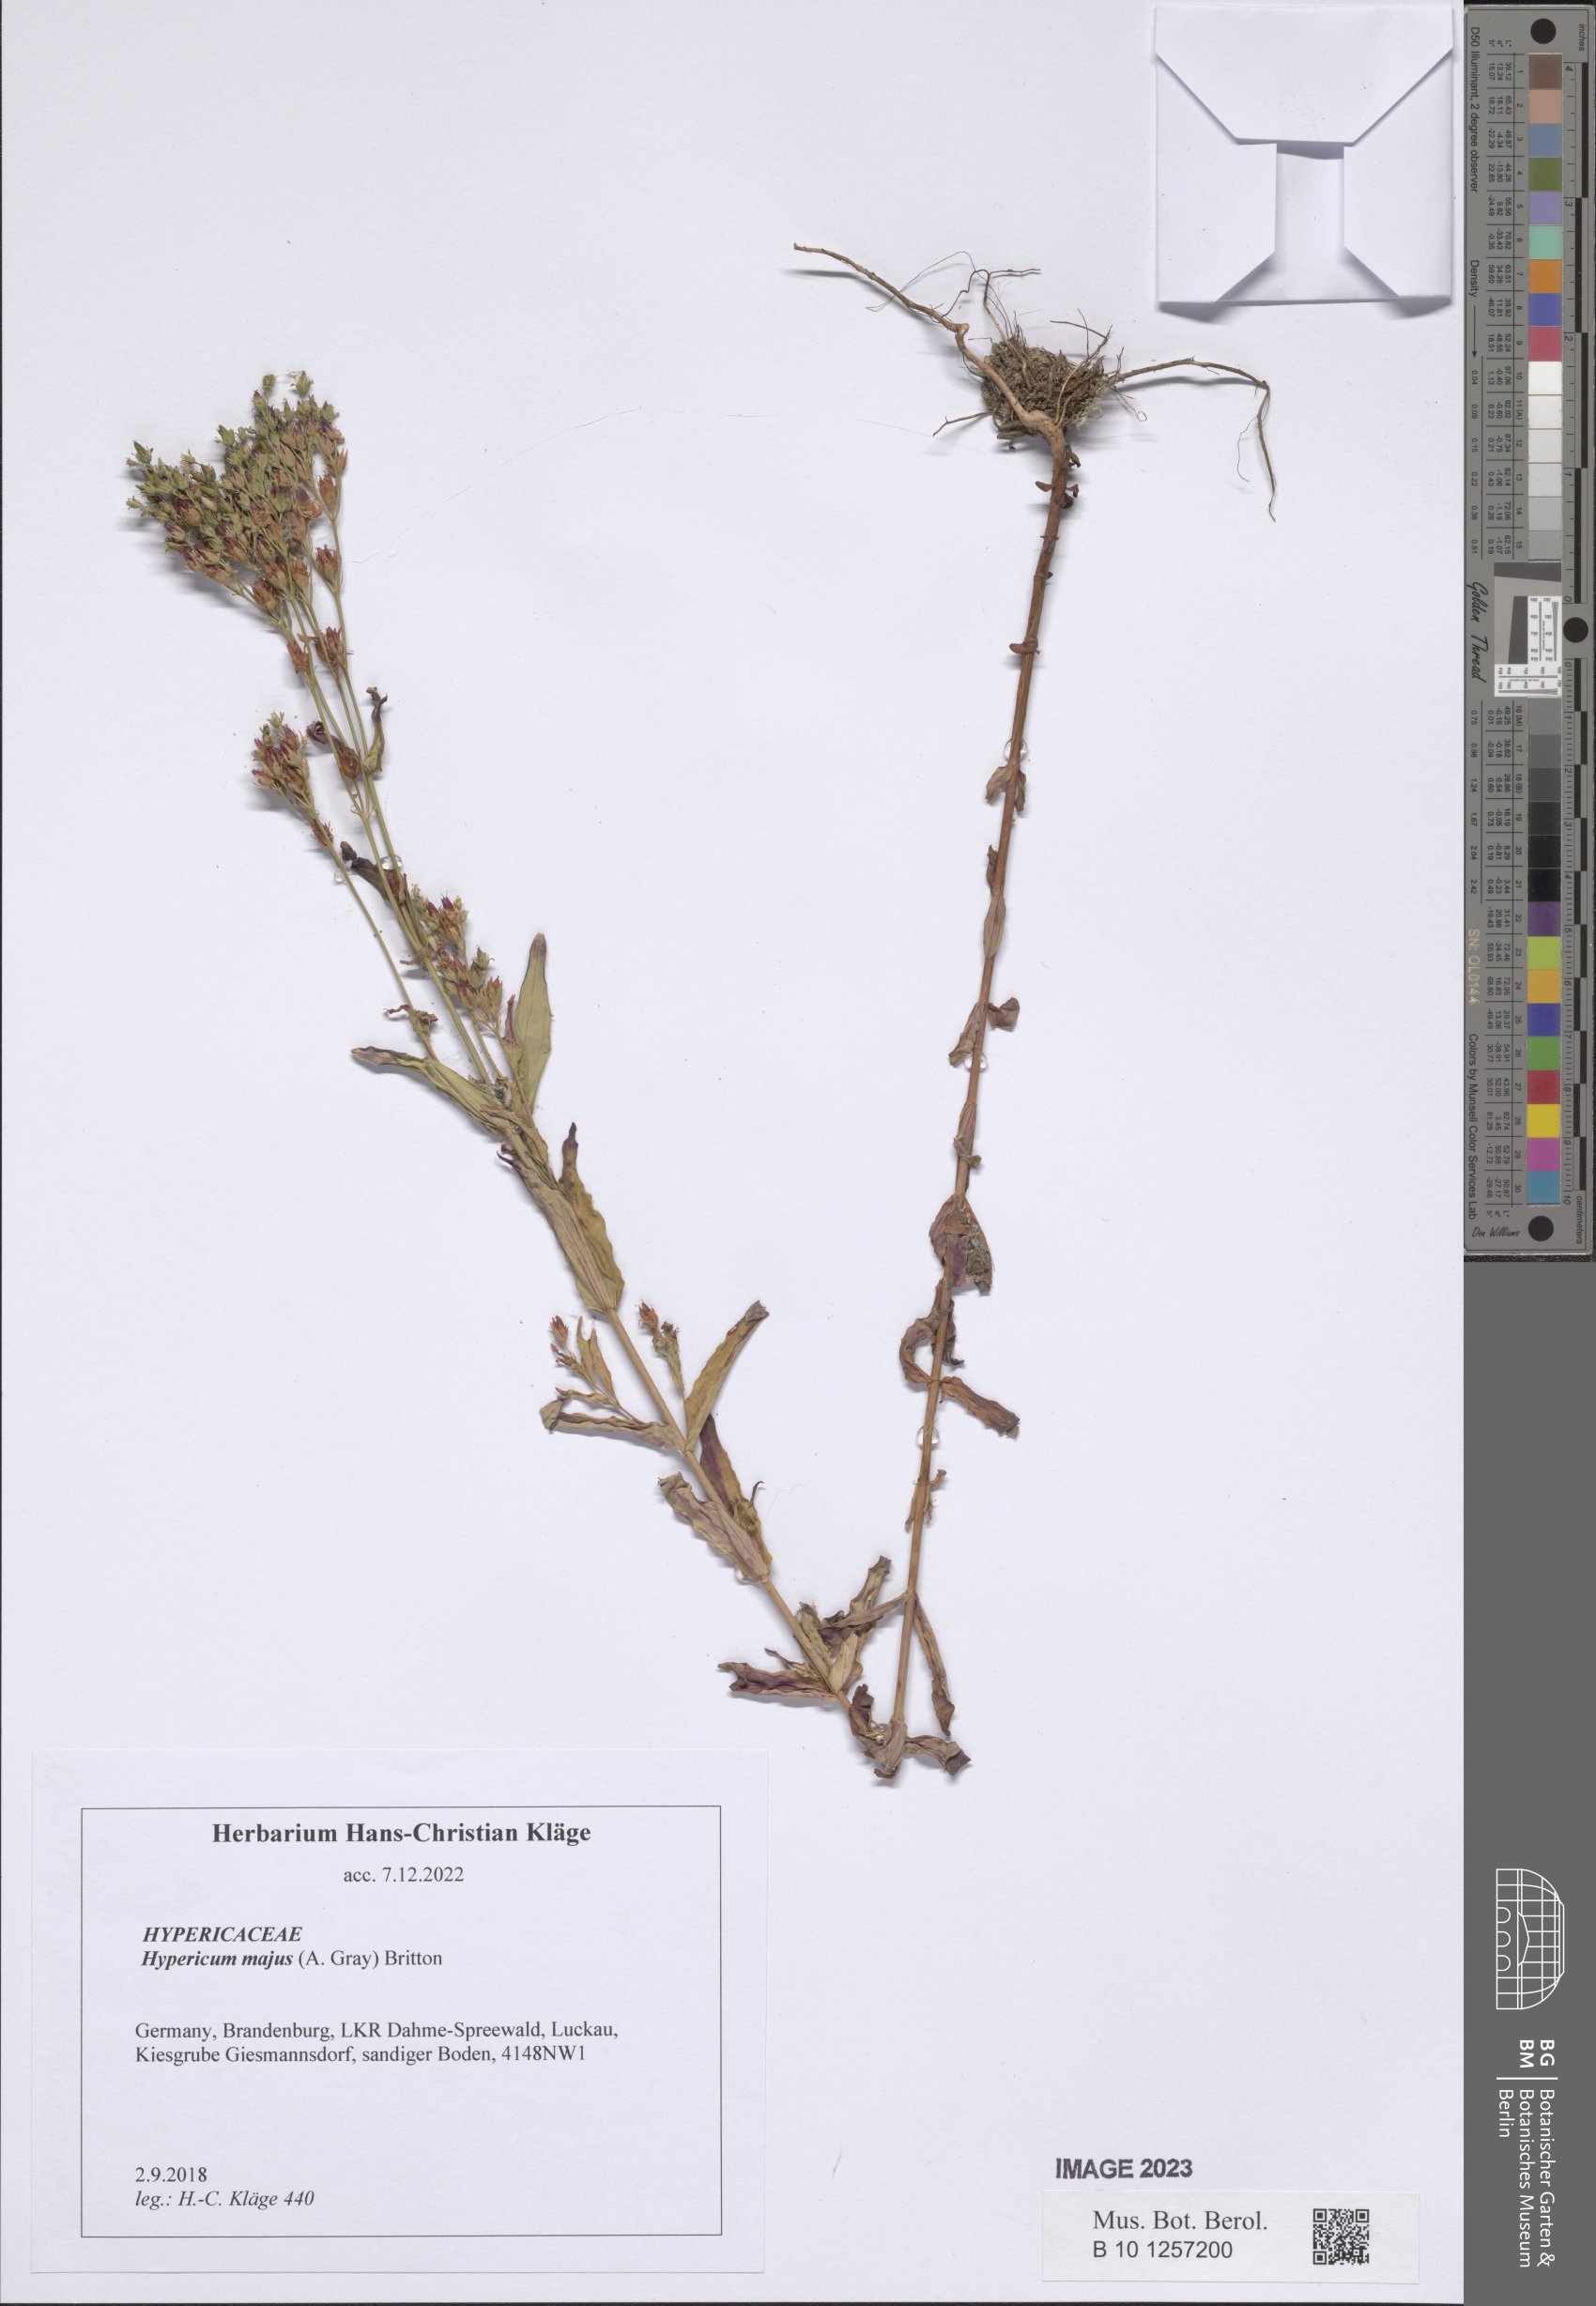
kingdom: Plantae
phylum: Tracheophyta
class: Magnoliopsida
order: Malpighiales
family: Hypericaceae
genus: Hypericum
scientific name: Hypericum majus
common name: Greater canadian st. john's-wort
